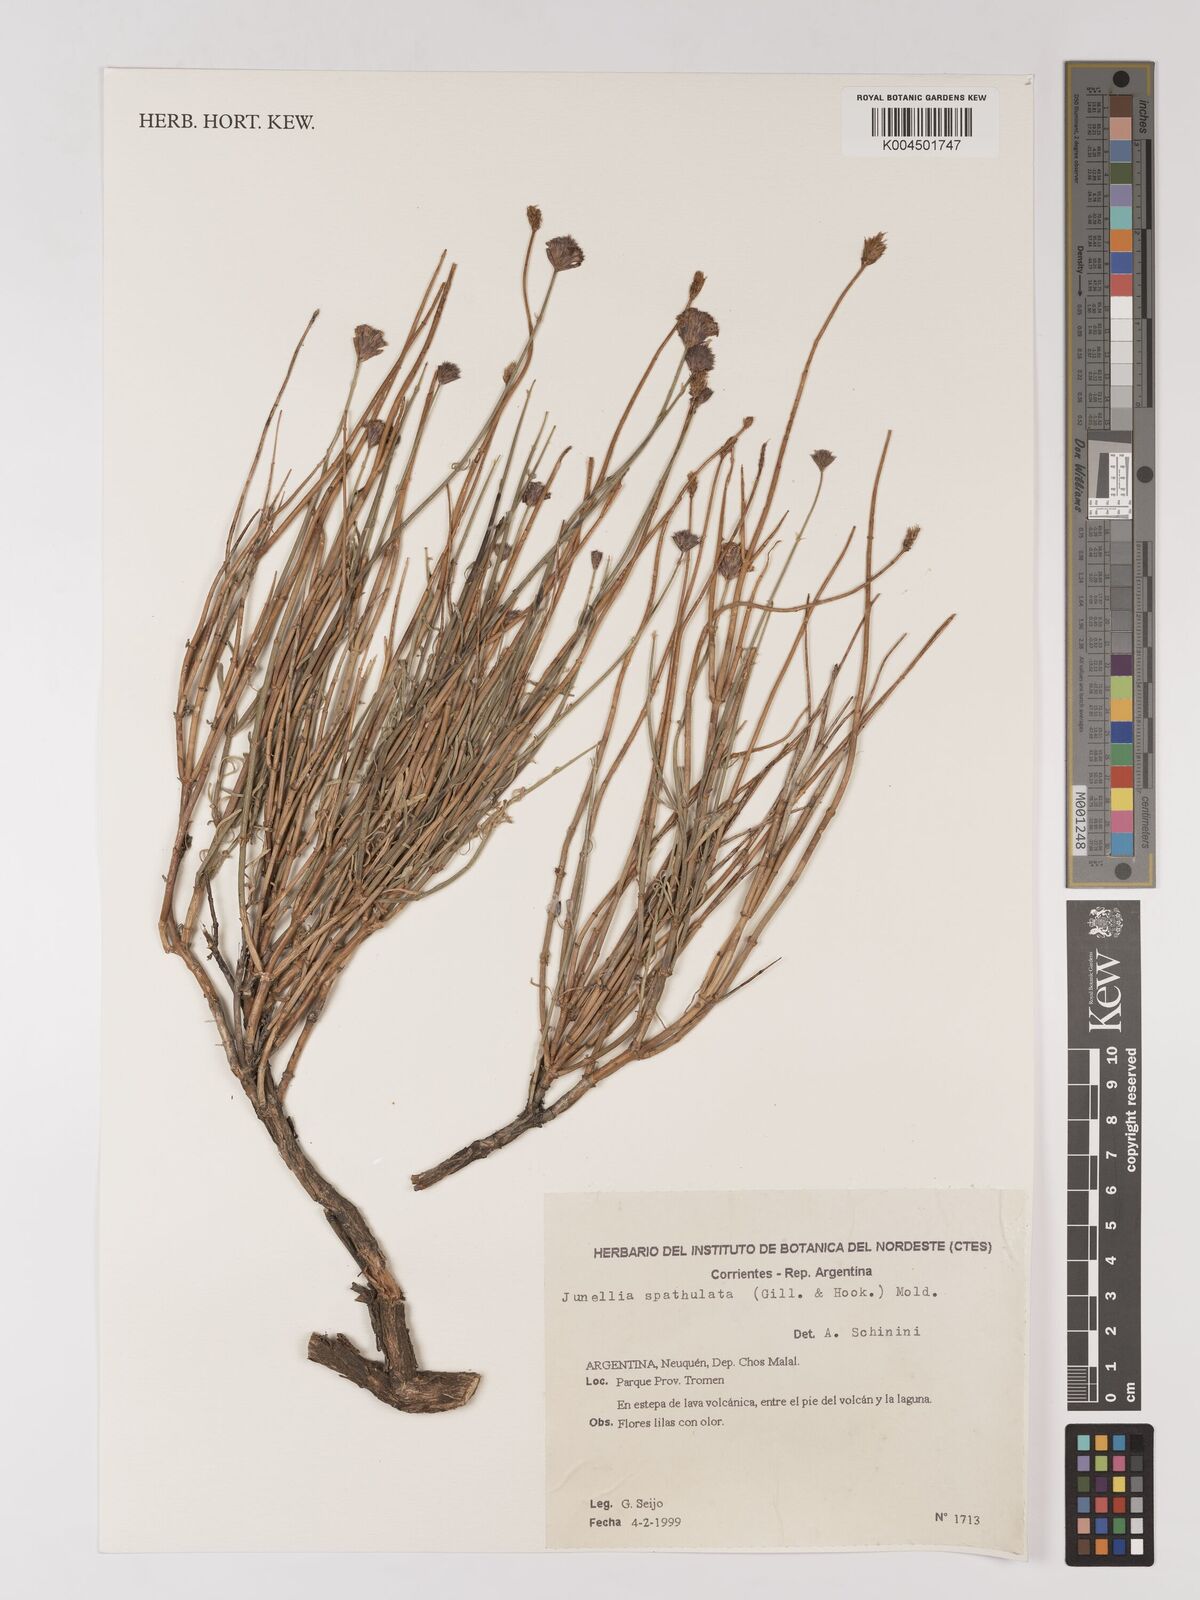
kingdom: Plantae
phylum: Tracheophyta
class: Magnoliopsida
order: Lamiales
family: Verbenaceae
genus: Junellia
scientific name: Junellia spathulata
